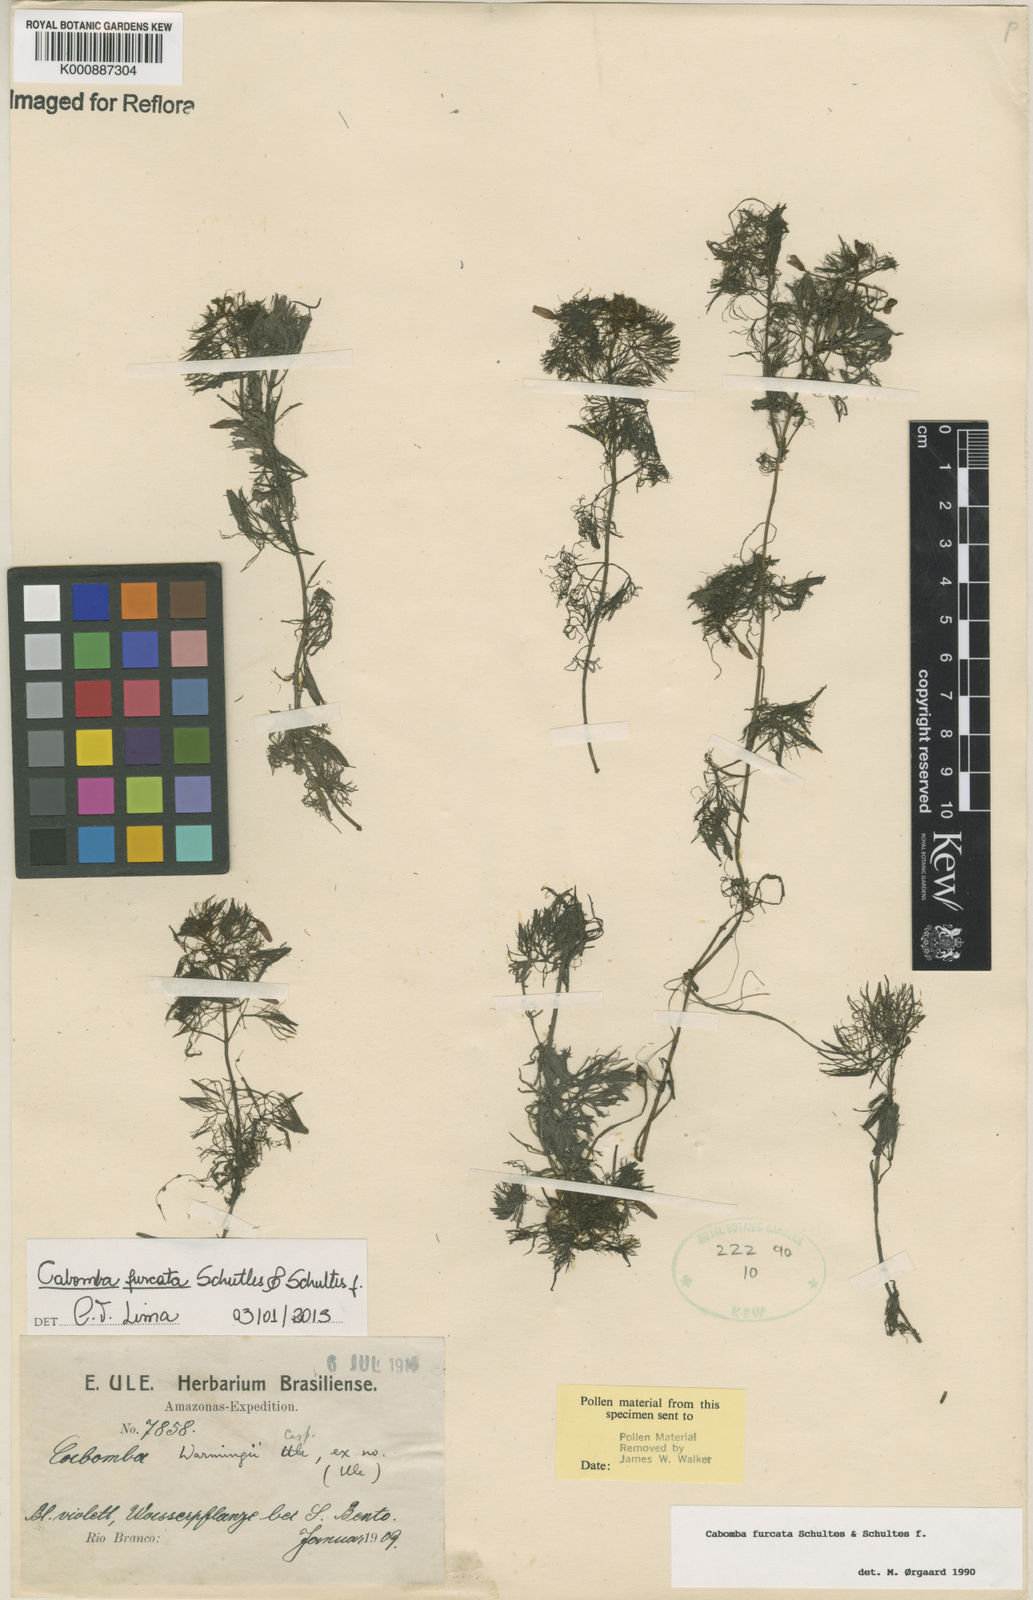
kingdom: Plantae
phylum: Tracheophyta
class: Magnoliopsida
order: Nymphaeales
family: Cabombaceae
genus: Cabomba
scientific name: Cabomba furcata
